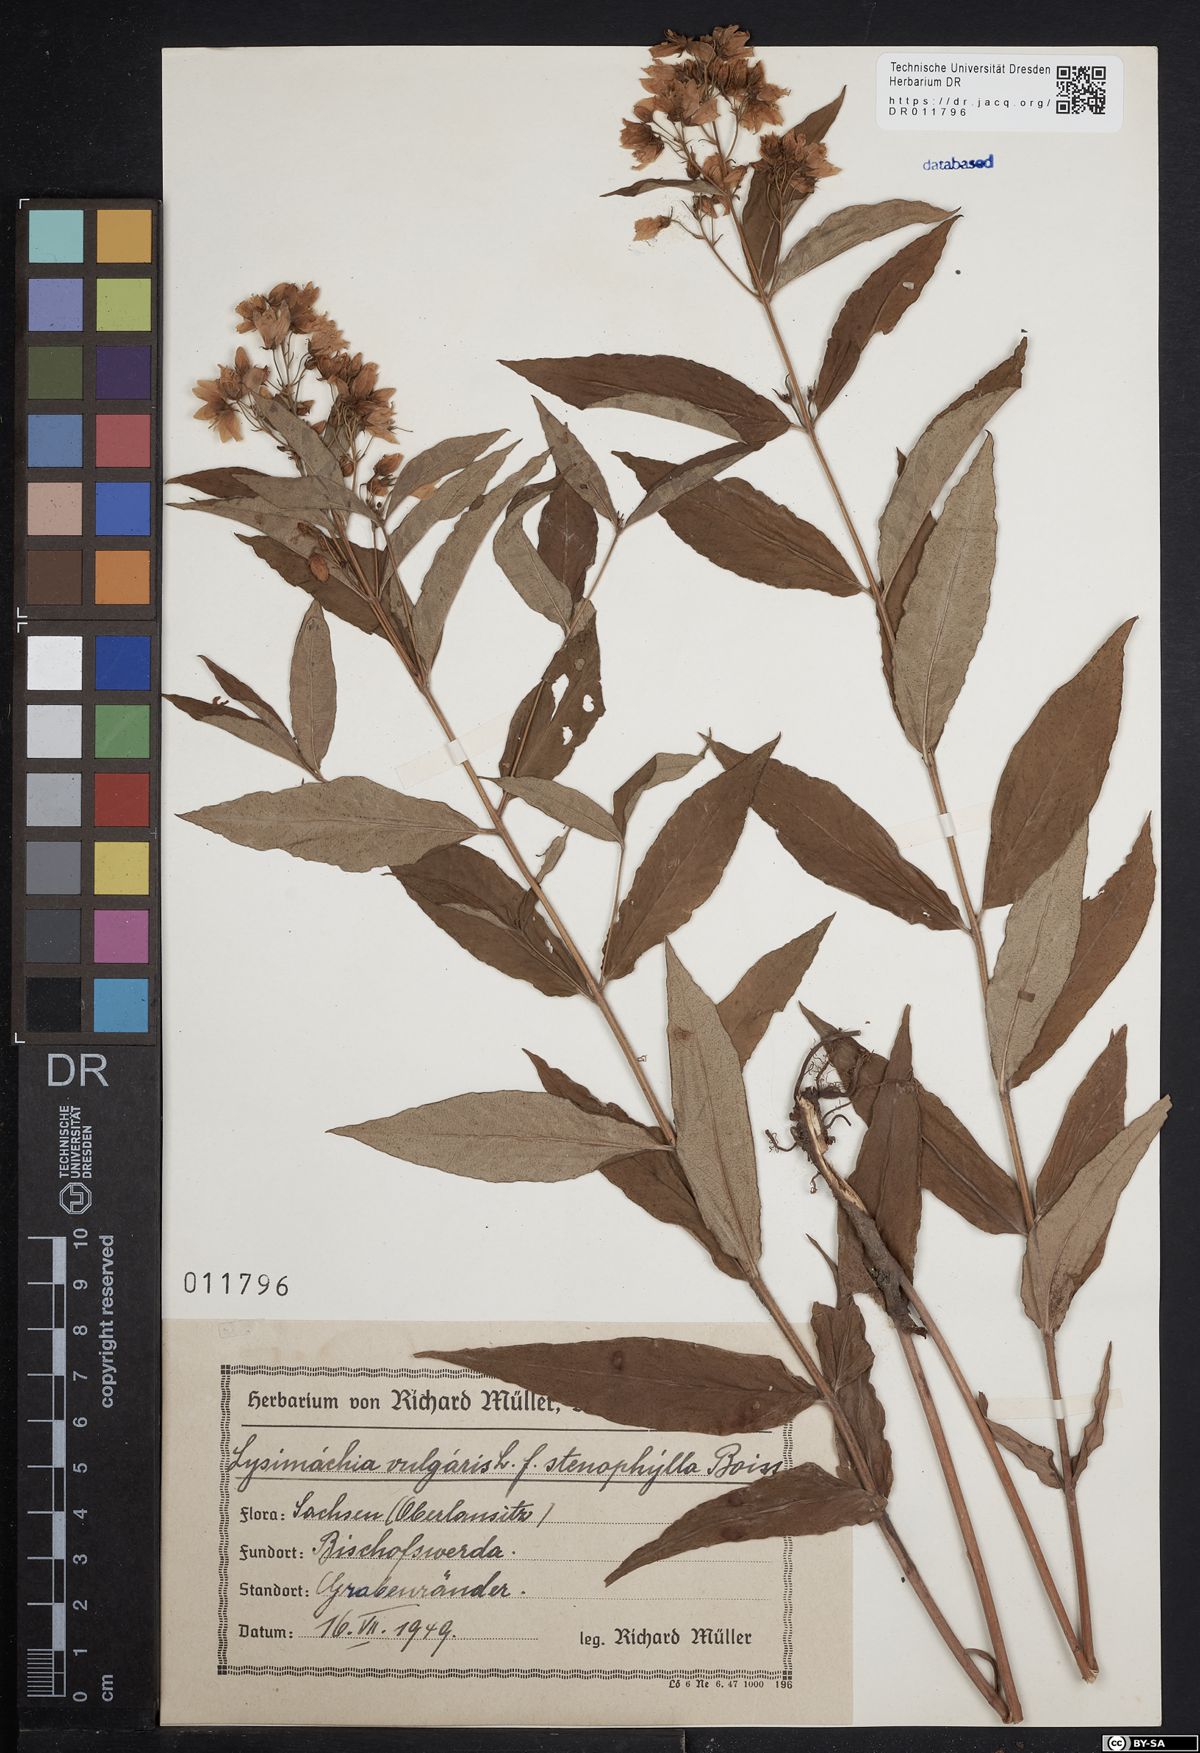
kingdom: Plantae
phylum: Tracheophyta
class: Magnoliopsida
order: Ericales
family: Primulaceae
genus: Lysimachia
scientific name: Lysimachia vulgaris
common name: Yellow loosestrife
